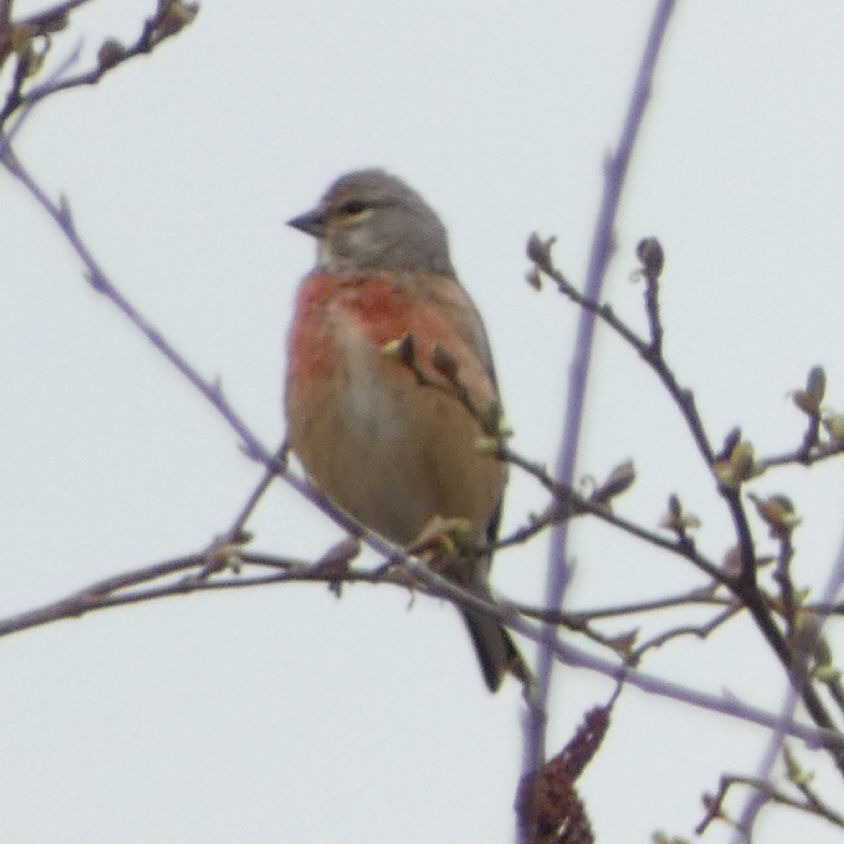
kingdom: Animalia
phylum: Chordata
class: Aves
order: Passeriformes
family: Fringillidae
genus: Linaria
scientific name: Linaria cannabina
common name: Tornirisk
